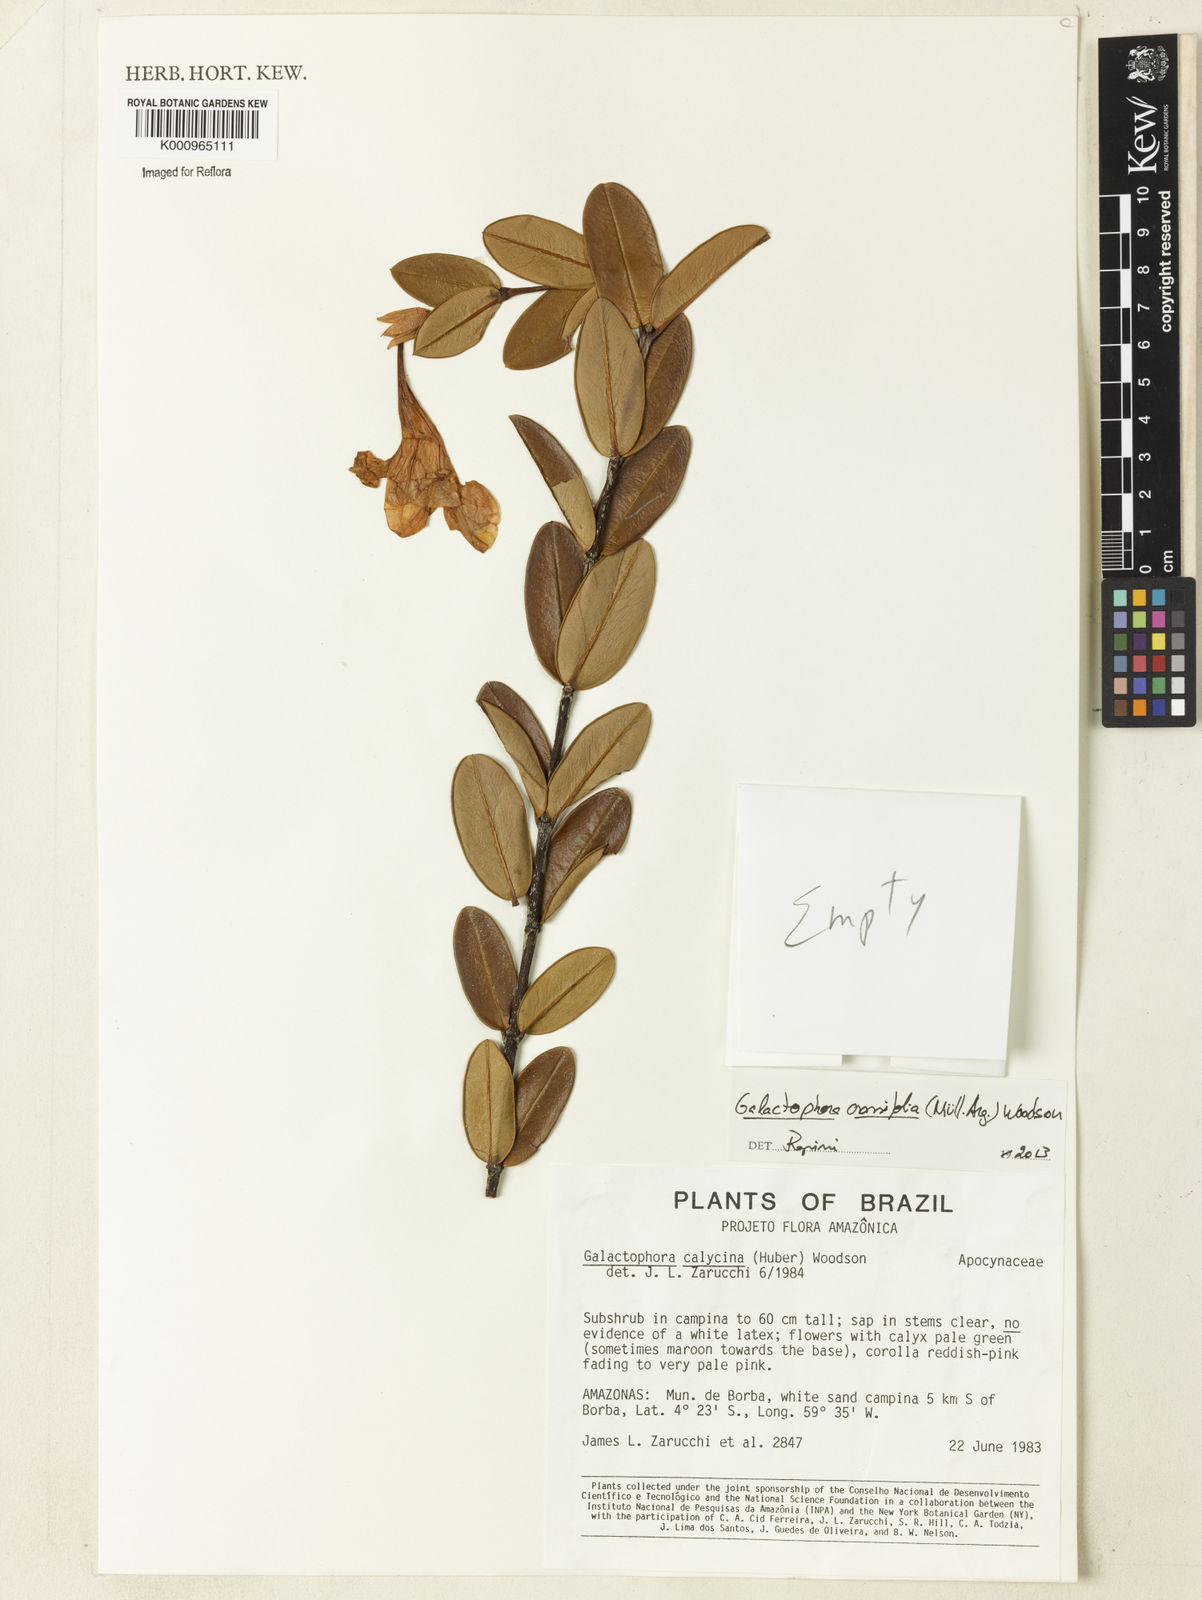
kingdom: Plantae
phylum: Tracheophyta
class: Magnoliopsida
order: Gentianales
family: Apocynaceae
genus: Galactophora
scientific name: Galactophora
